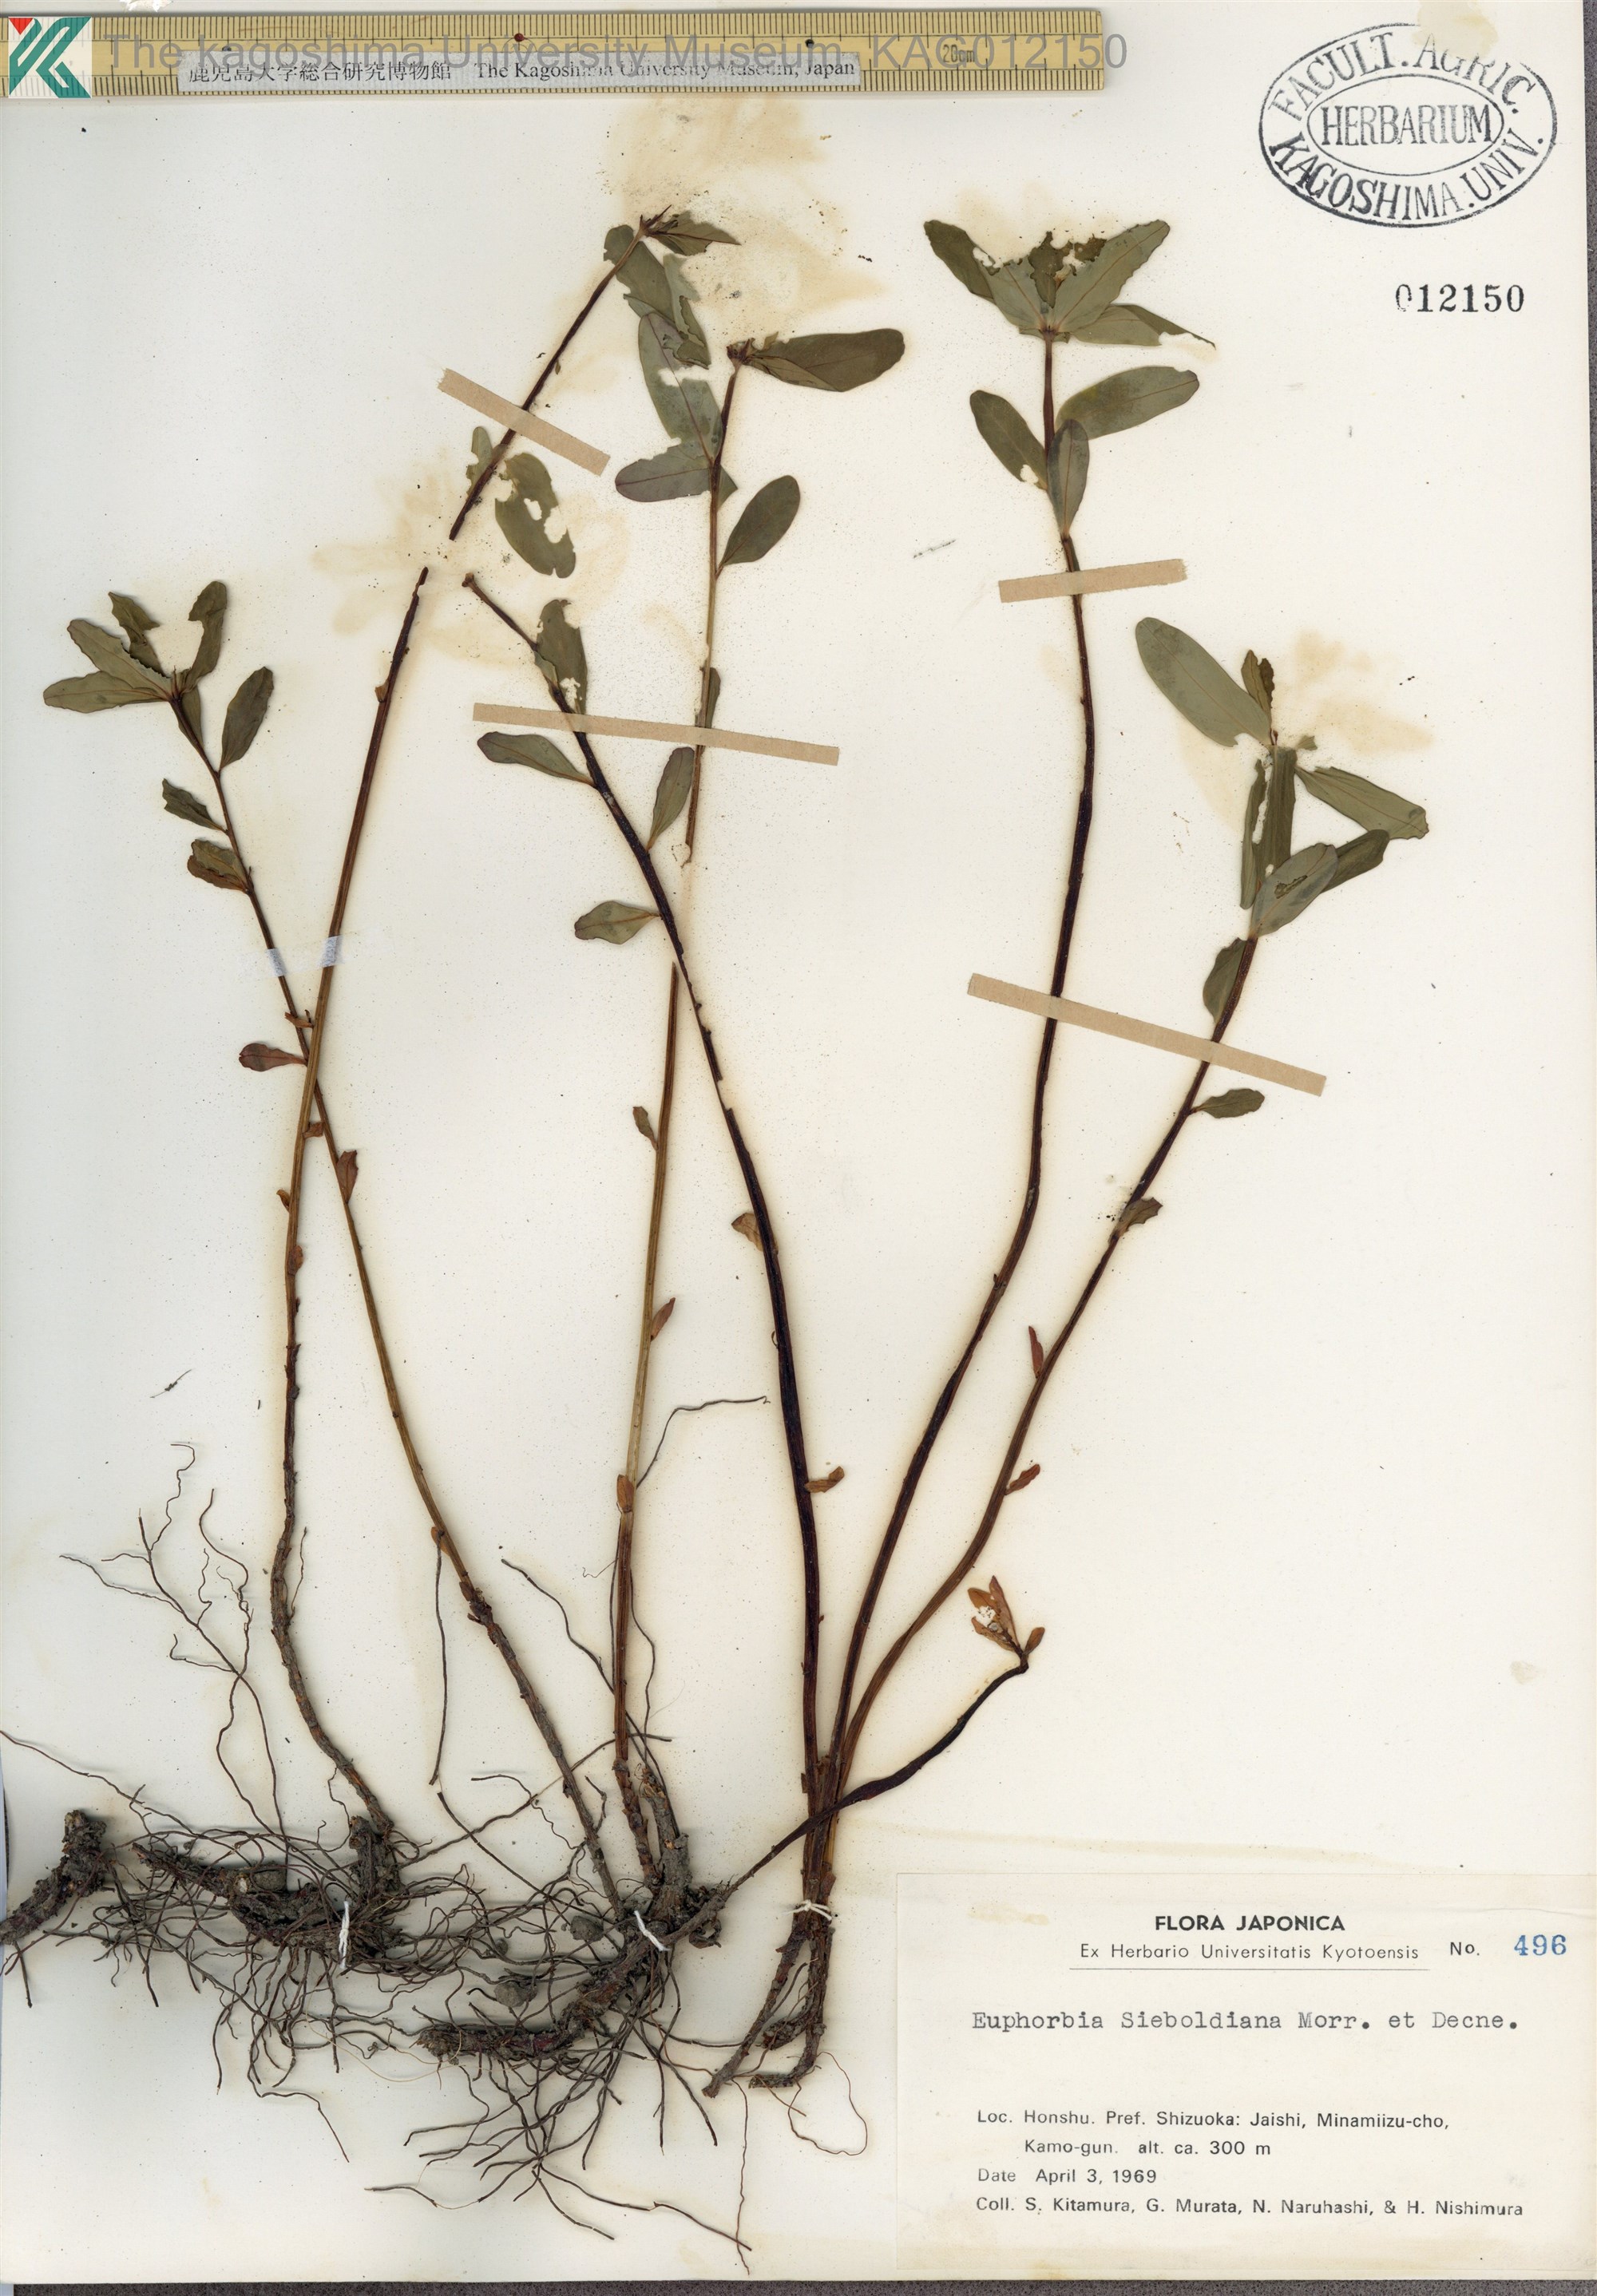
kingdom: Plantae
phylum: Tracheophyta
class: Magnoliopsida
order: Malpighiales
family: Euphorbiaceae
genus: Euphorbia
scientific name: Euphorbia sieboldiana
